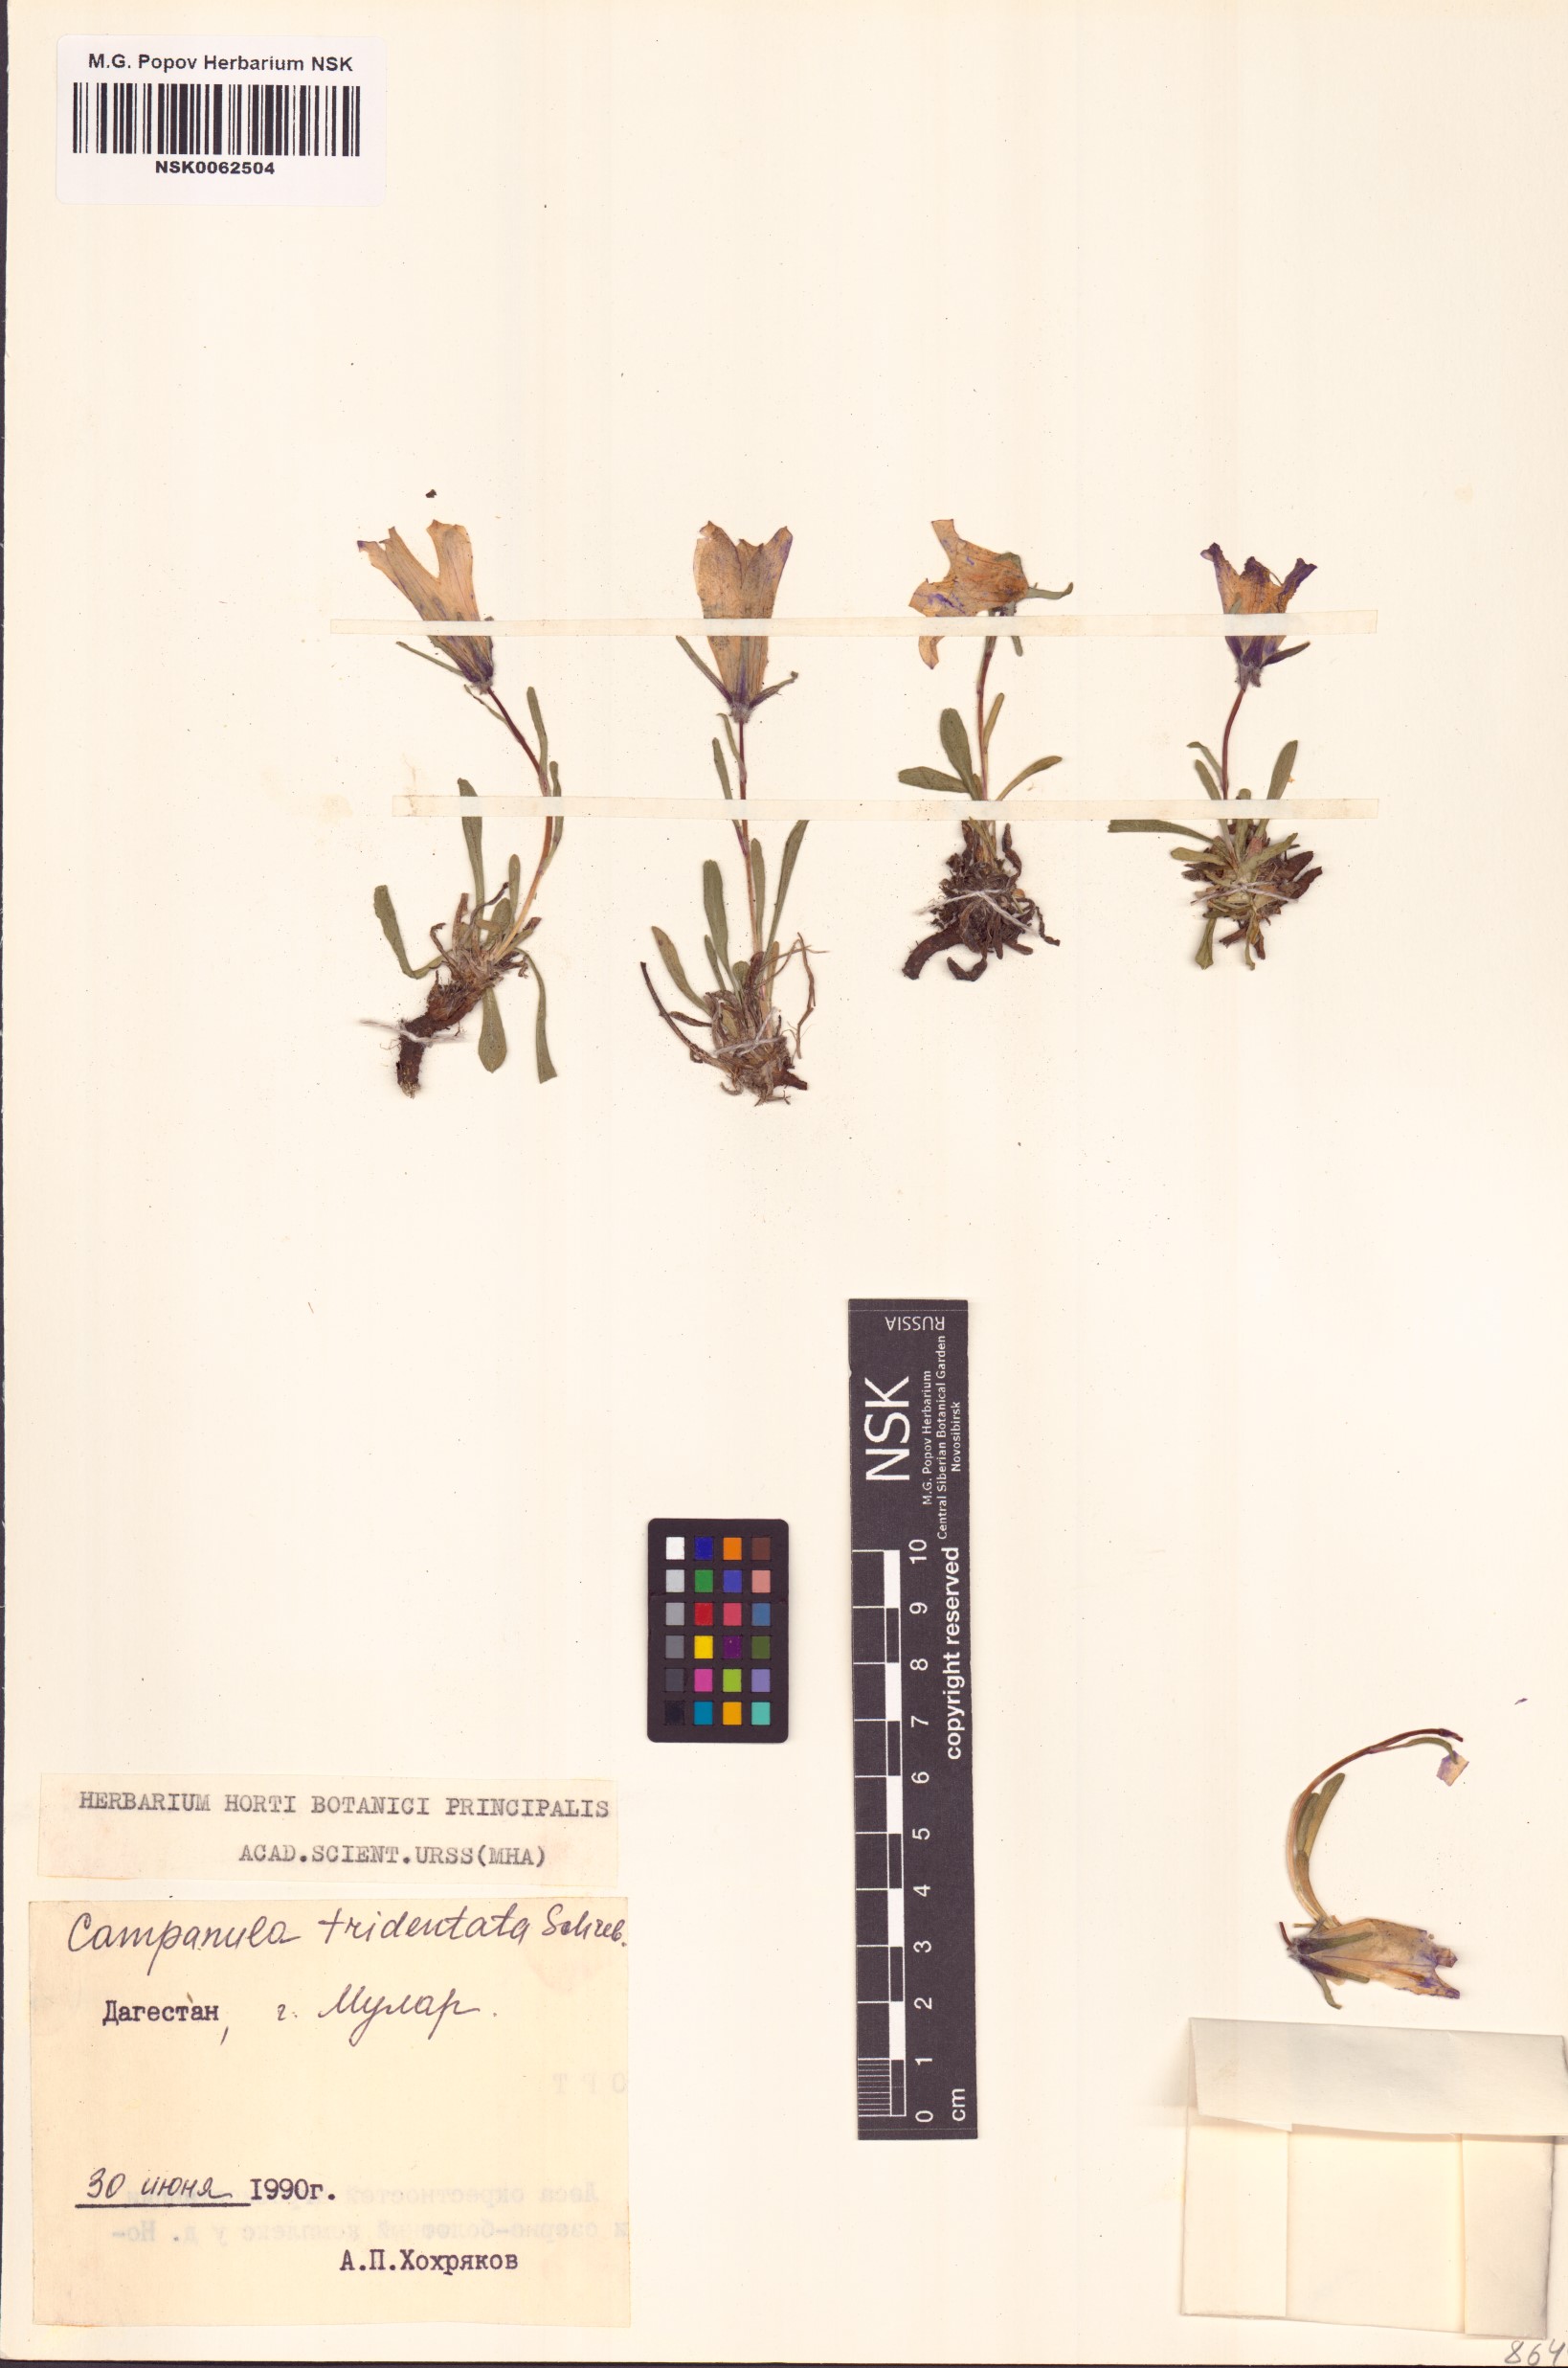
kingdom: Plantae
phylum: Tracheophyta
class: Magnoliopsida
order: Asterales
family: Campanulaceae
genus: Campanula
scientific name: Campanula tridentata
